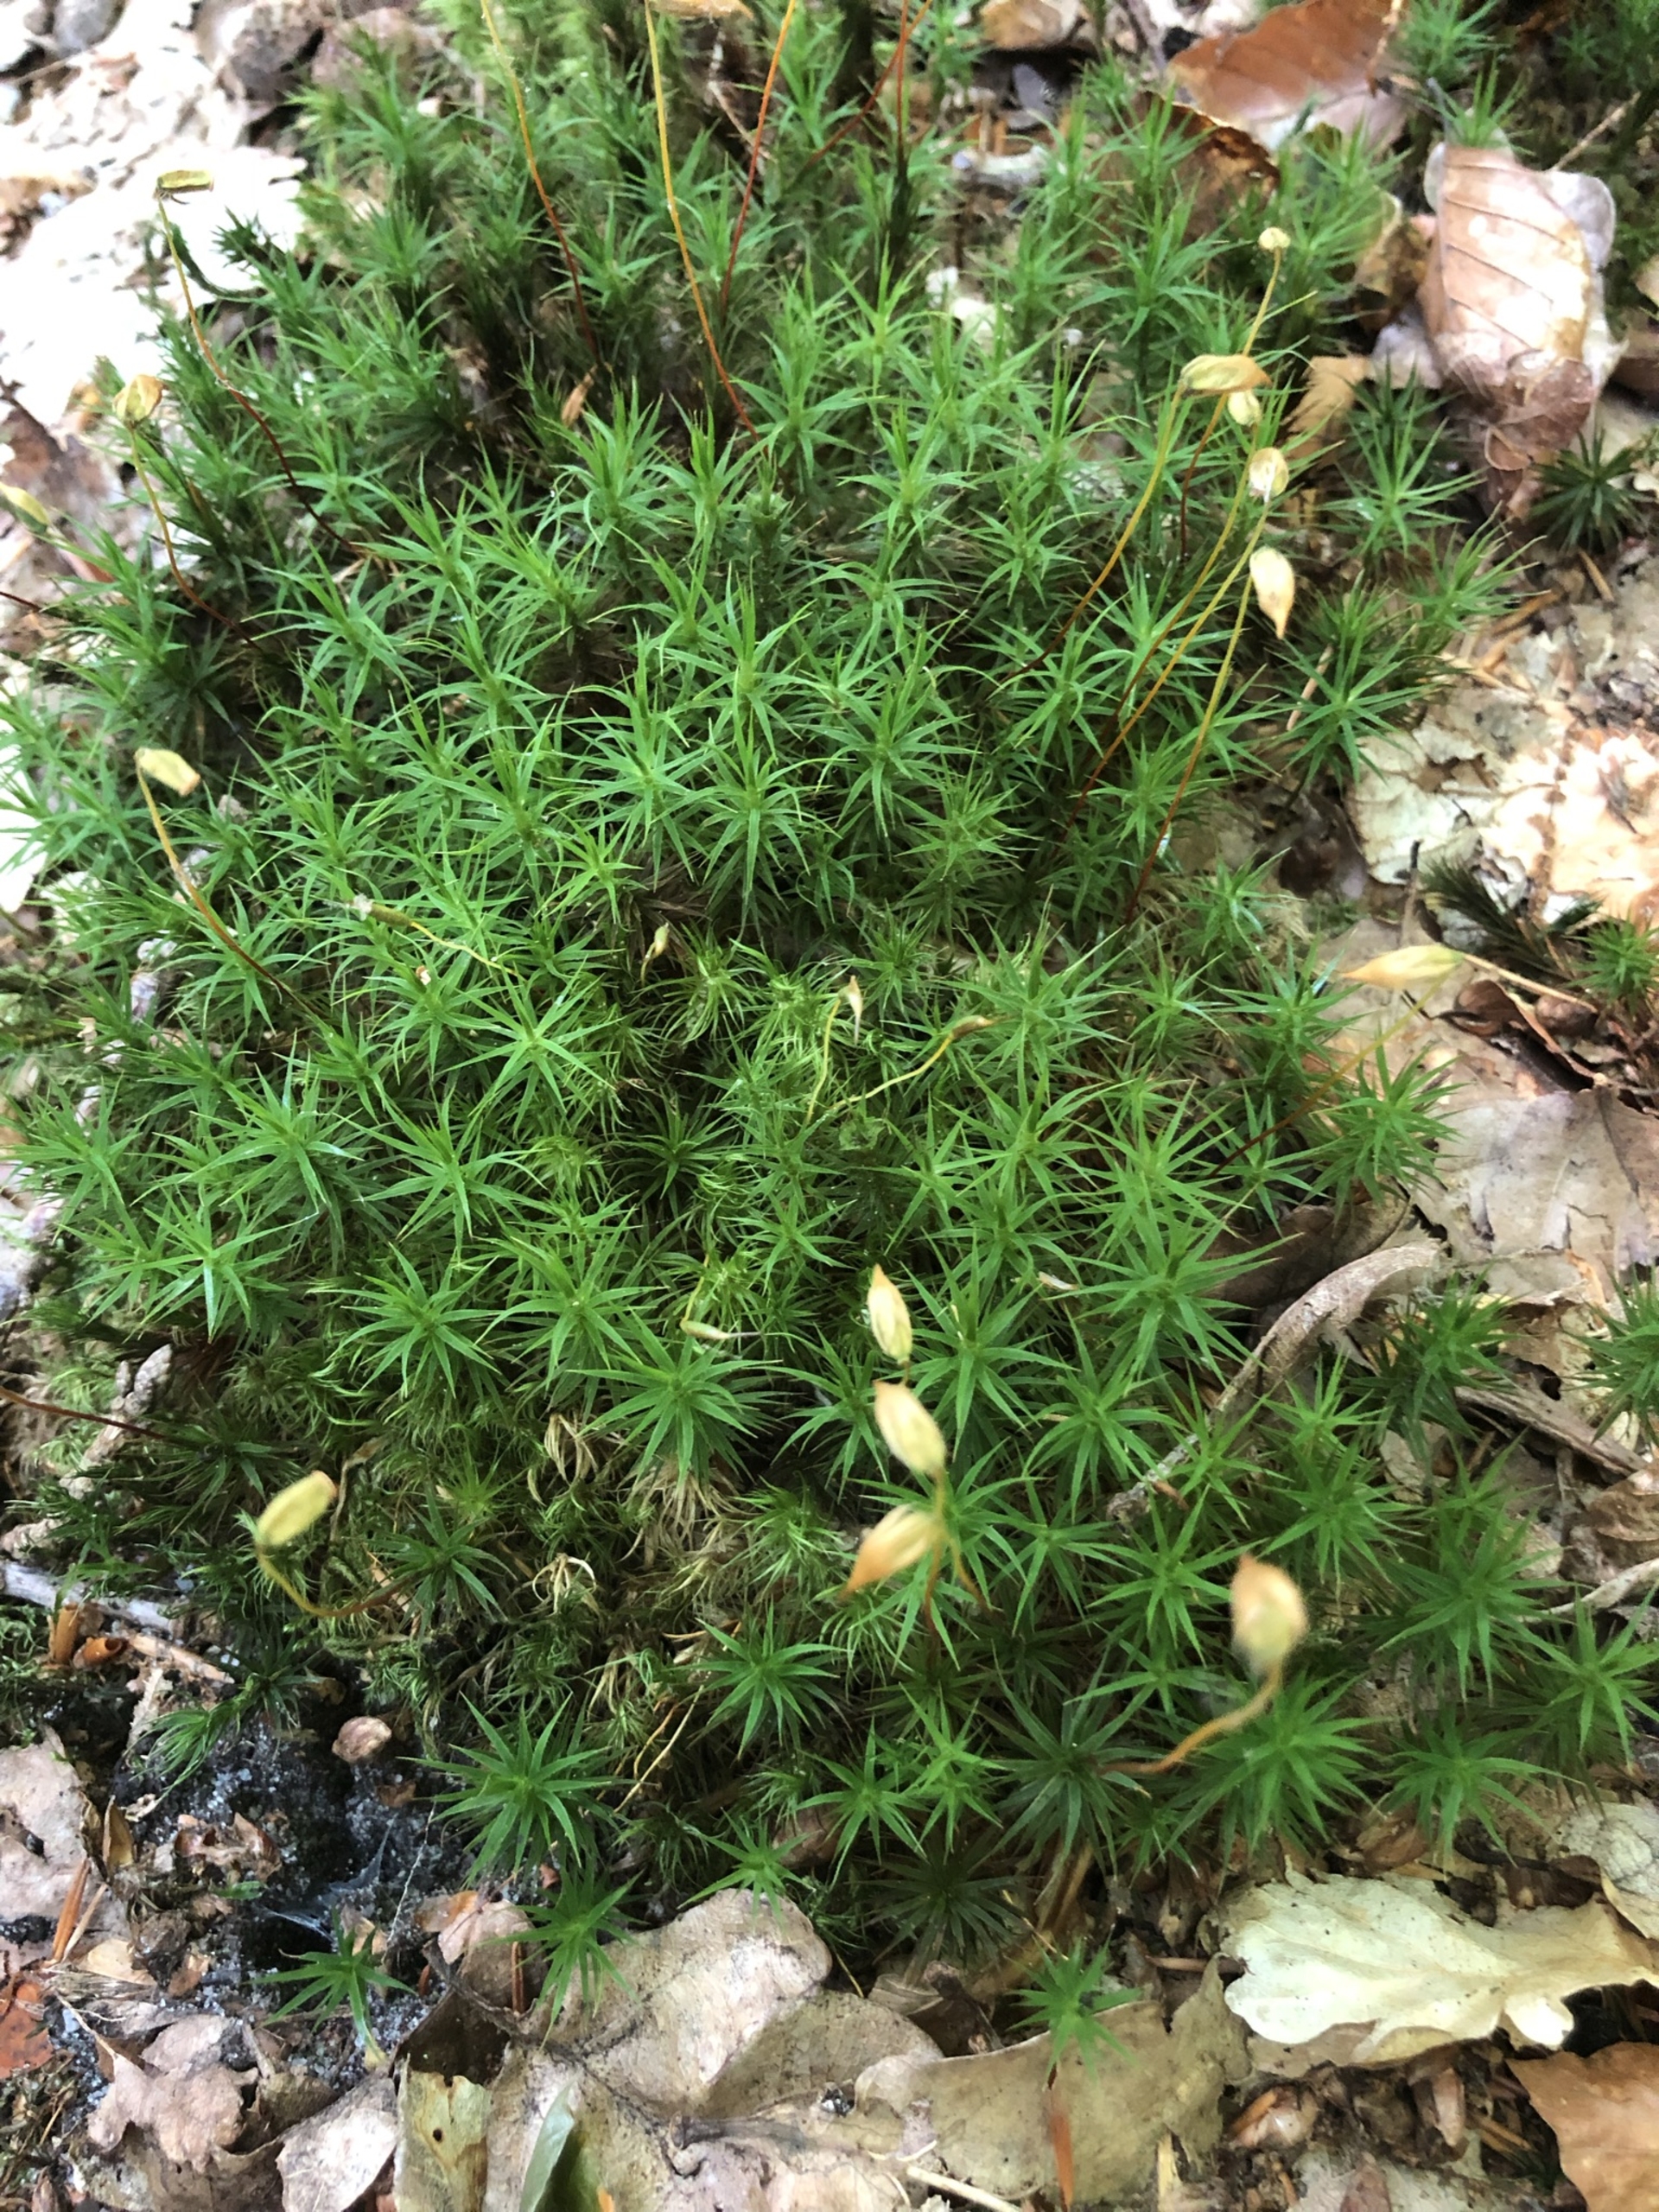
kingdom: Plantae
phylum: Bryophyta
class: Polytrichopsida
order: Polytrichales
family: Polytrichaceae
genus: Polytrichum
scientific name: Polytrichum formosum
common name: Skov-jomfruhår
